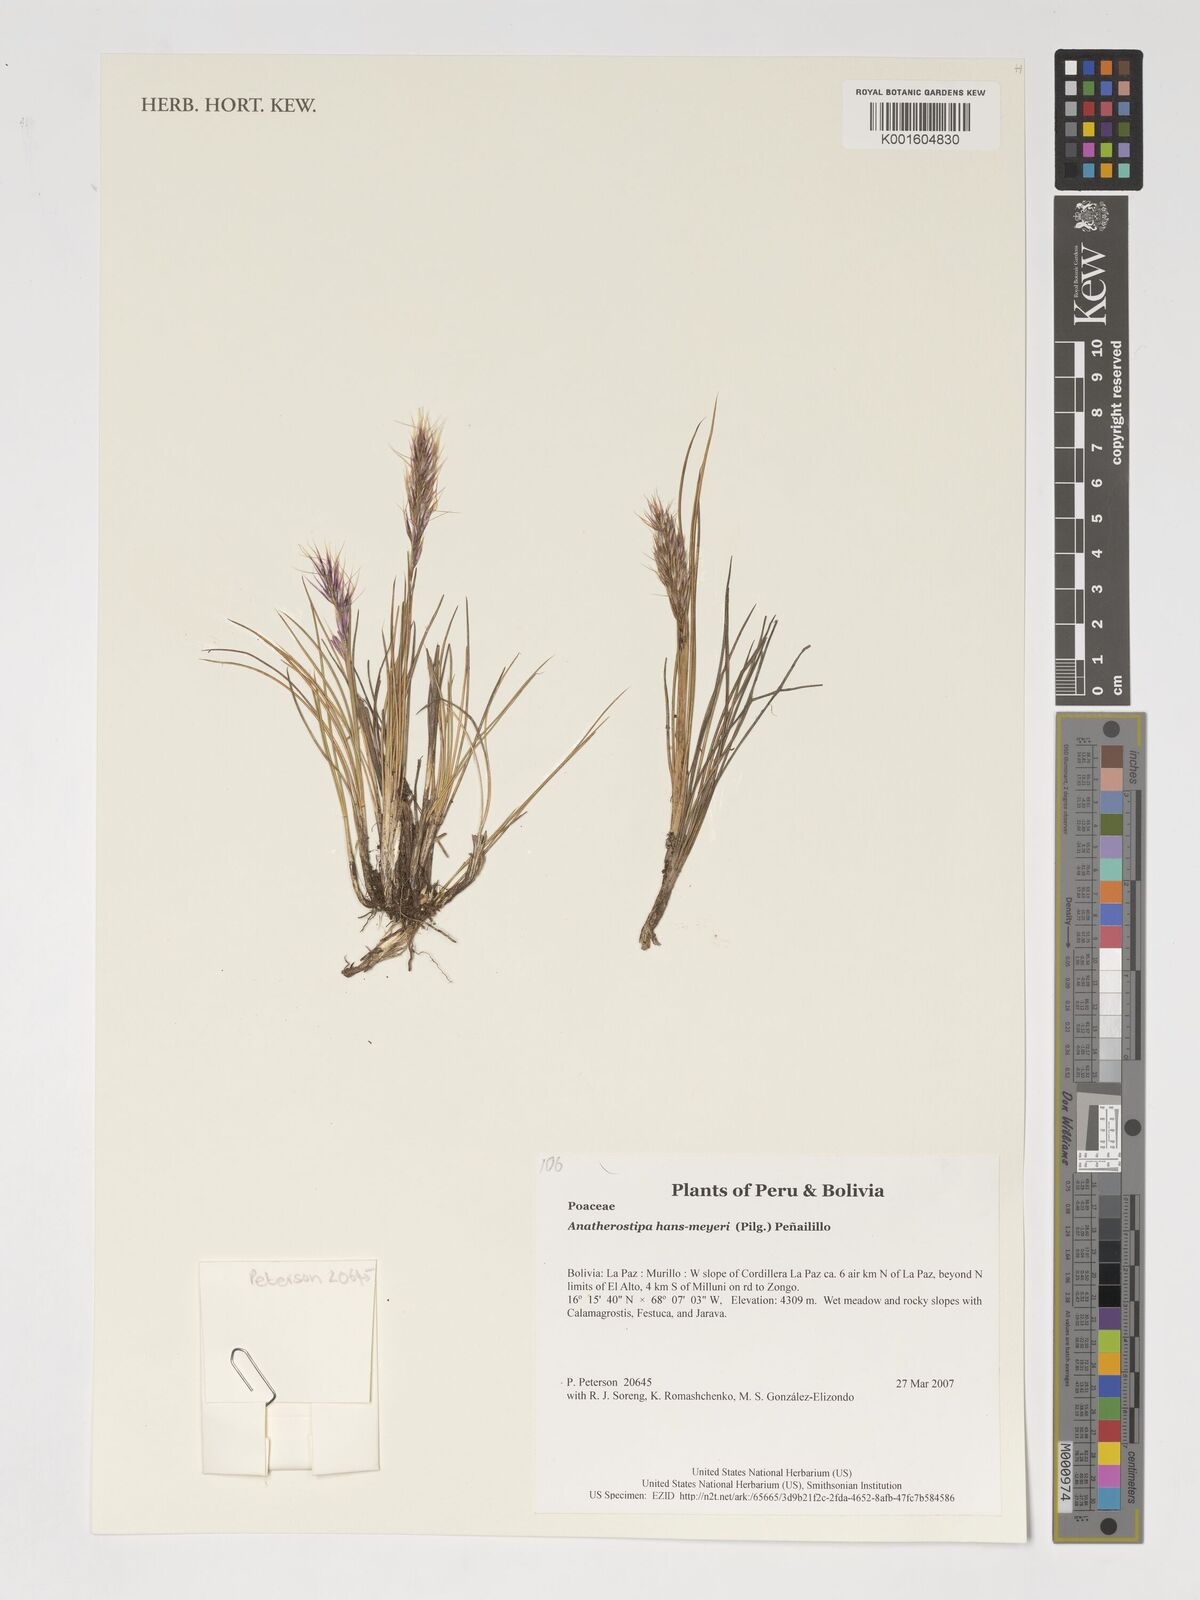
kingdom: Plantae
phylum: Tracheophyta
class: Liliopsida
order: Poales
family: Poaceae
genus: Stipa
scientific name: Stipa hans-meyeri
